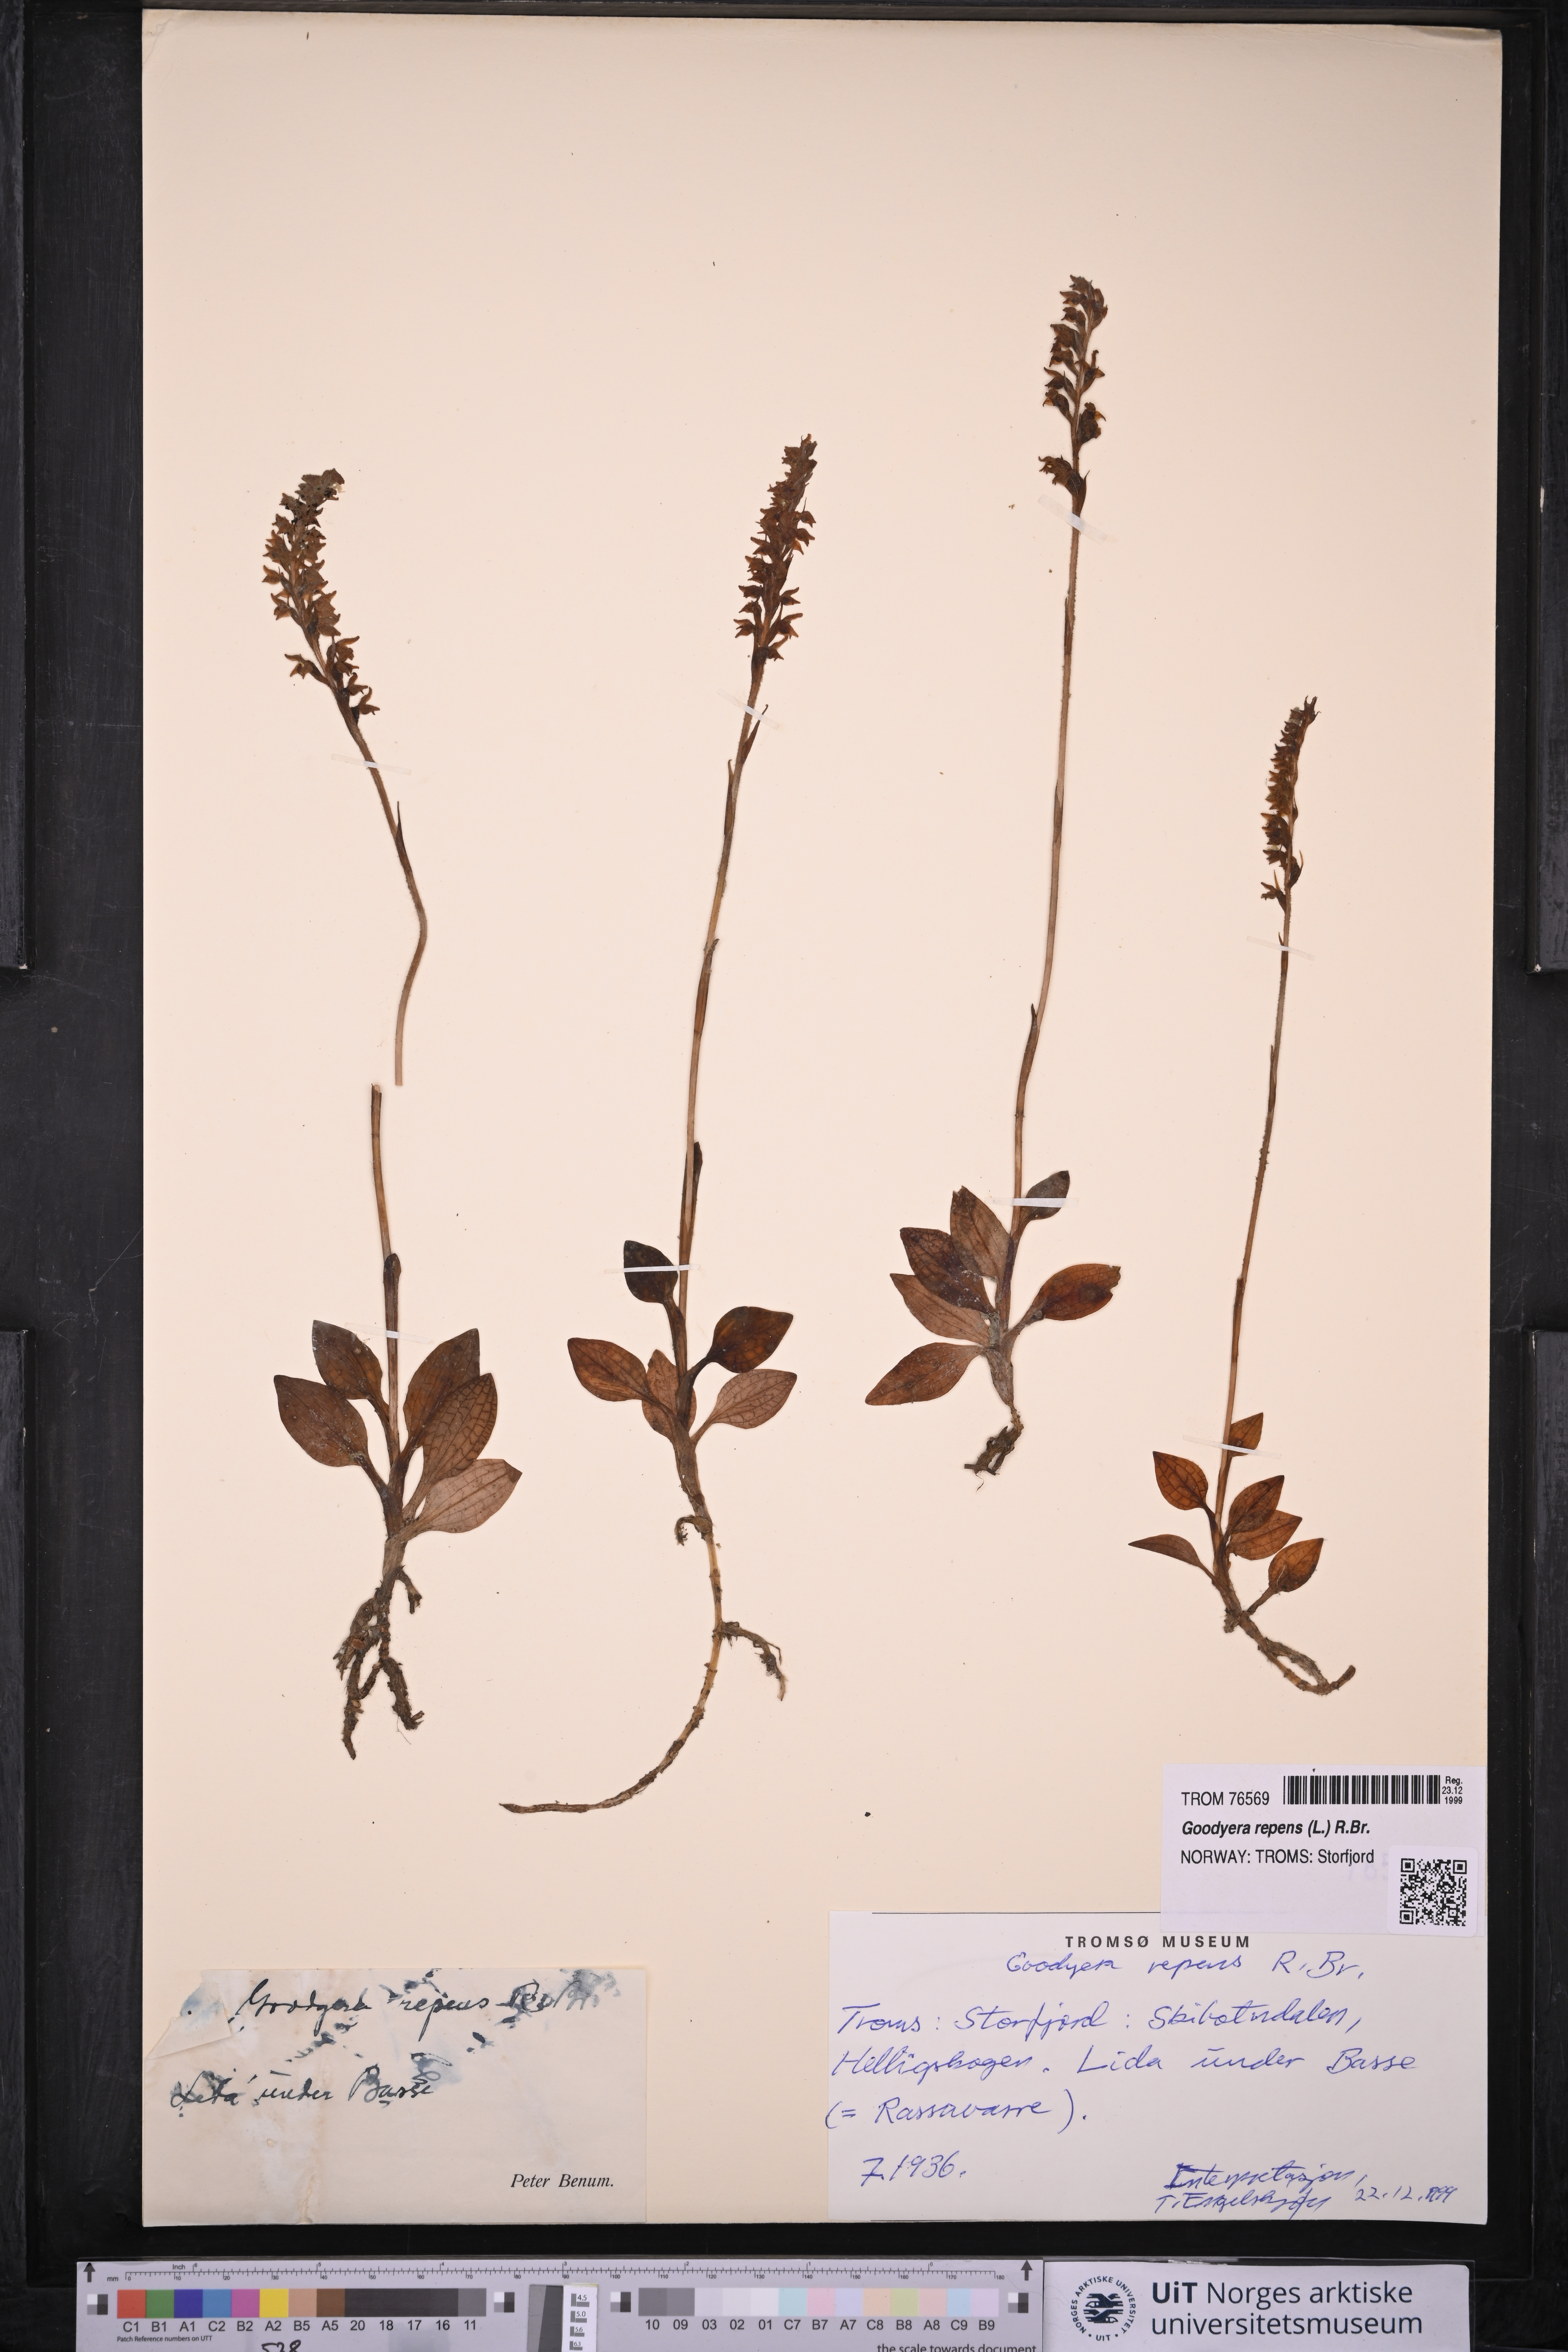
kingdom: Plantae
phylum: Tracheophyta
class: Liliopsida
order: Asparagales
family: Orchidaceae
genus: Goodyera
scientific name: Goodyera repens
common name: Creeping lady's-tresses
